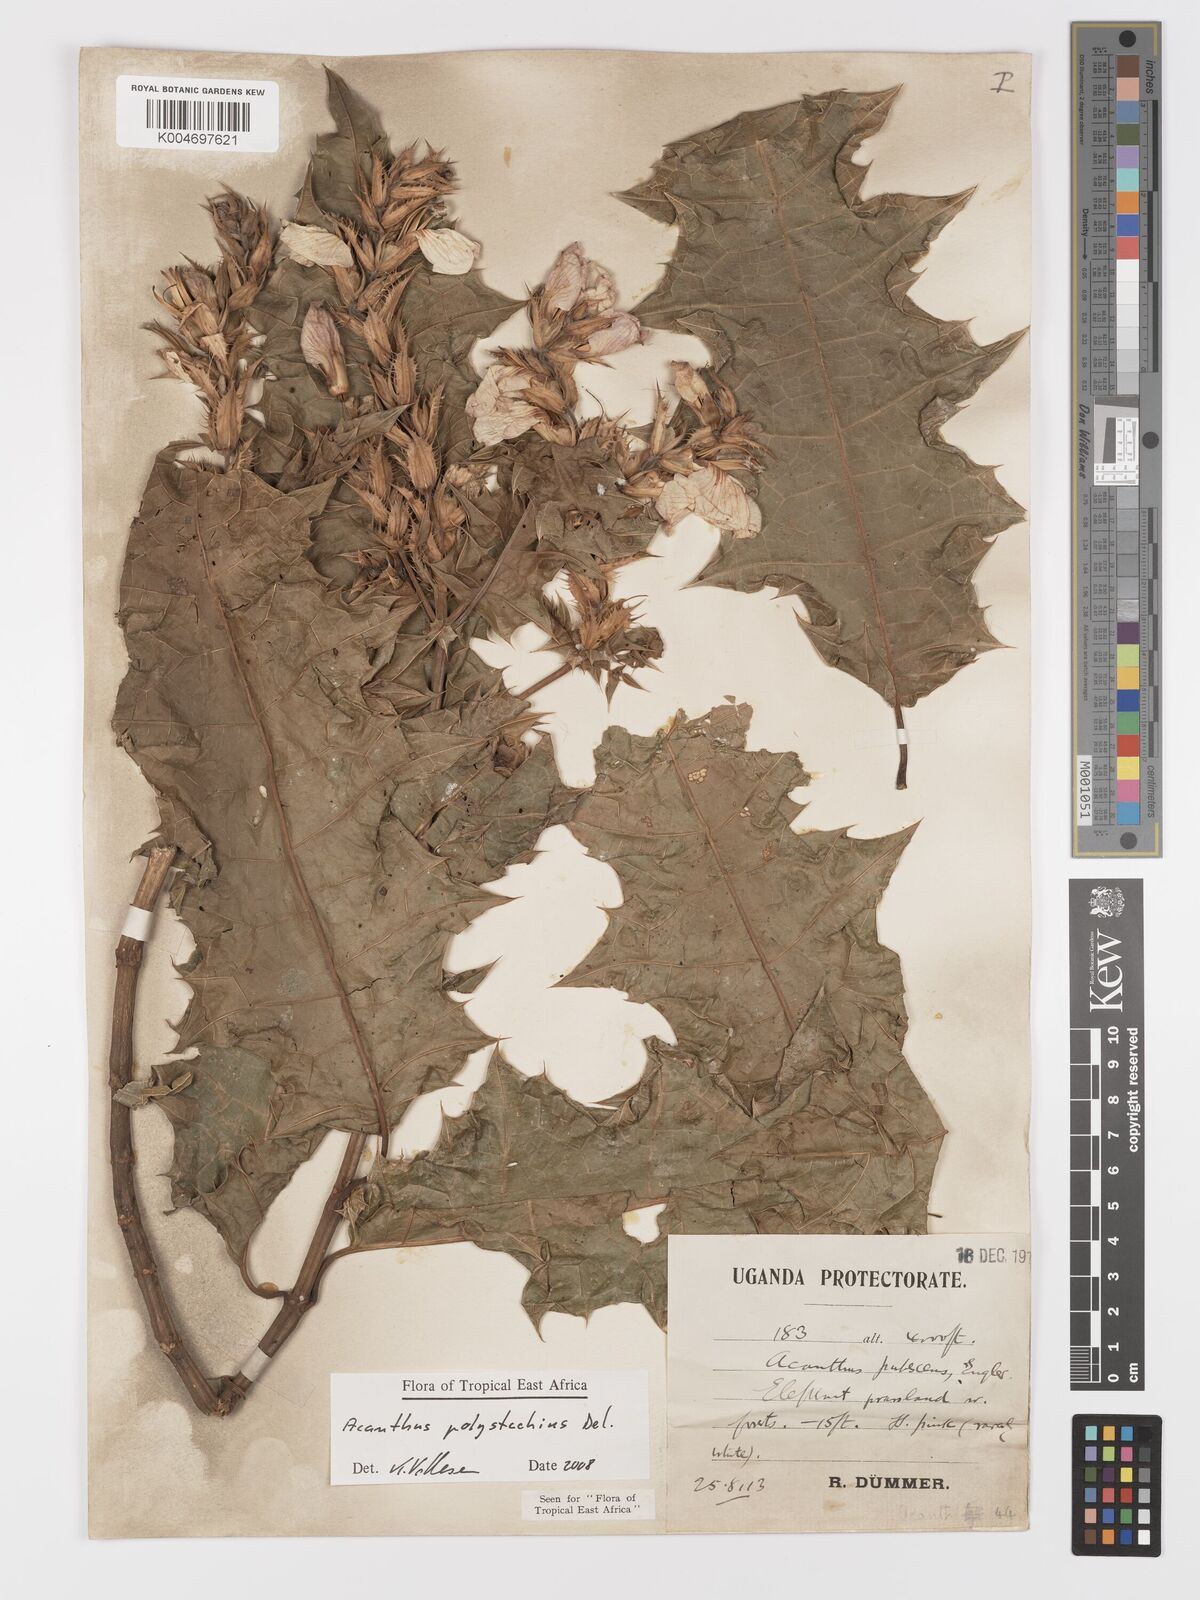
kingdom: Plantae
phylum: Tracheophyta
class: Magnoliopsida
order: Lamiales
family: Acanthaceae
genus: Acanthus
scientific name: Acanthus polystachyus
